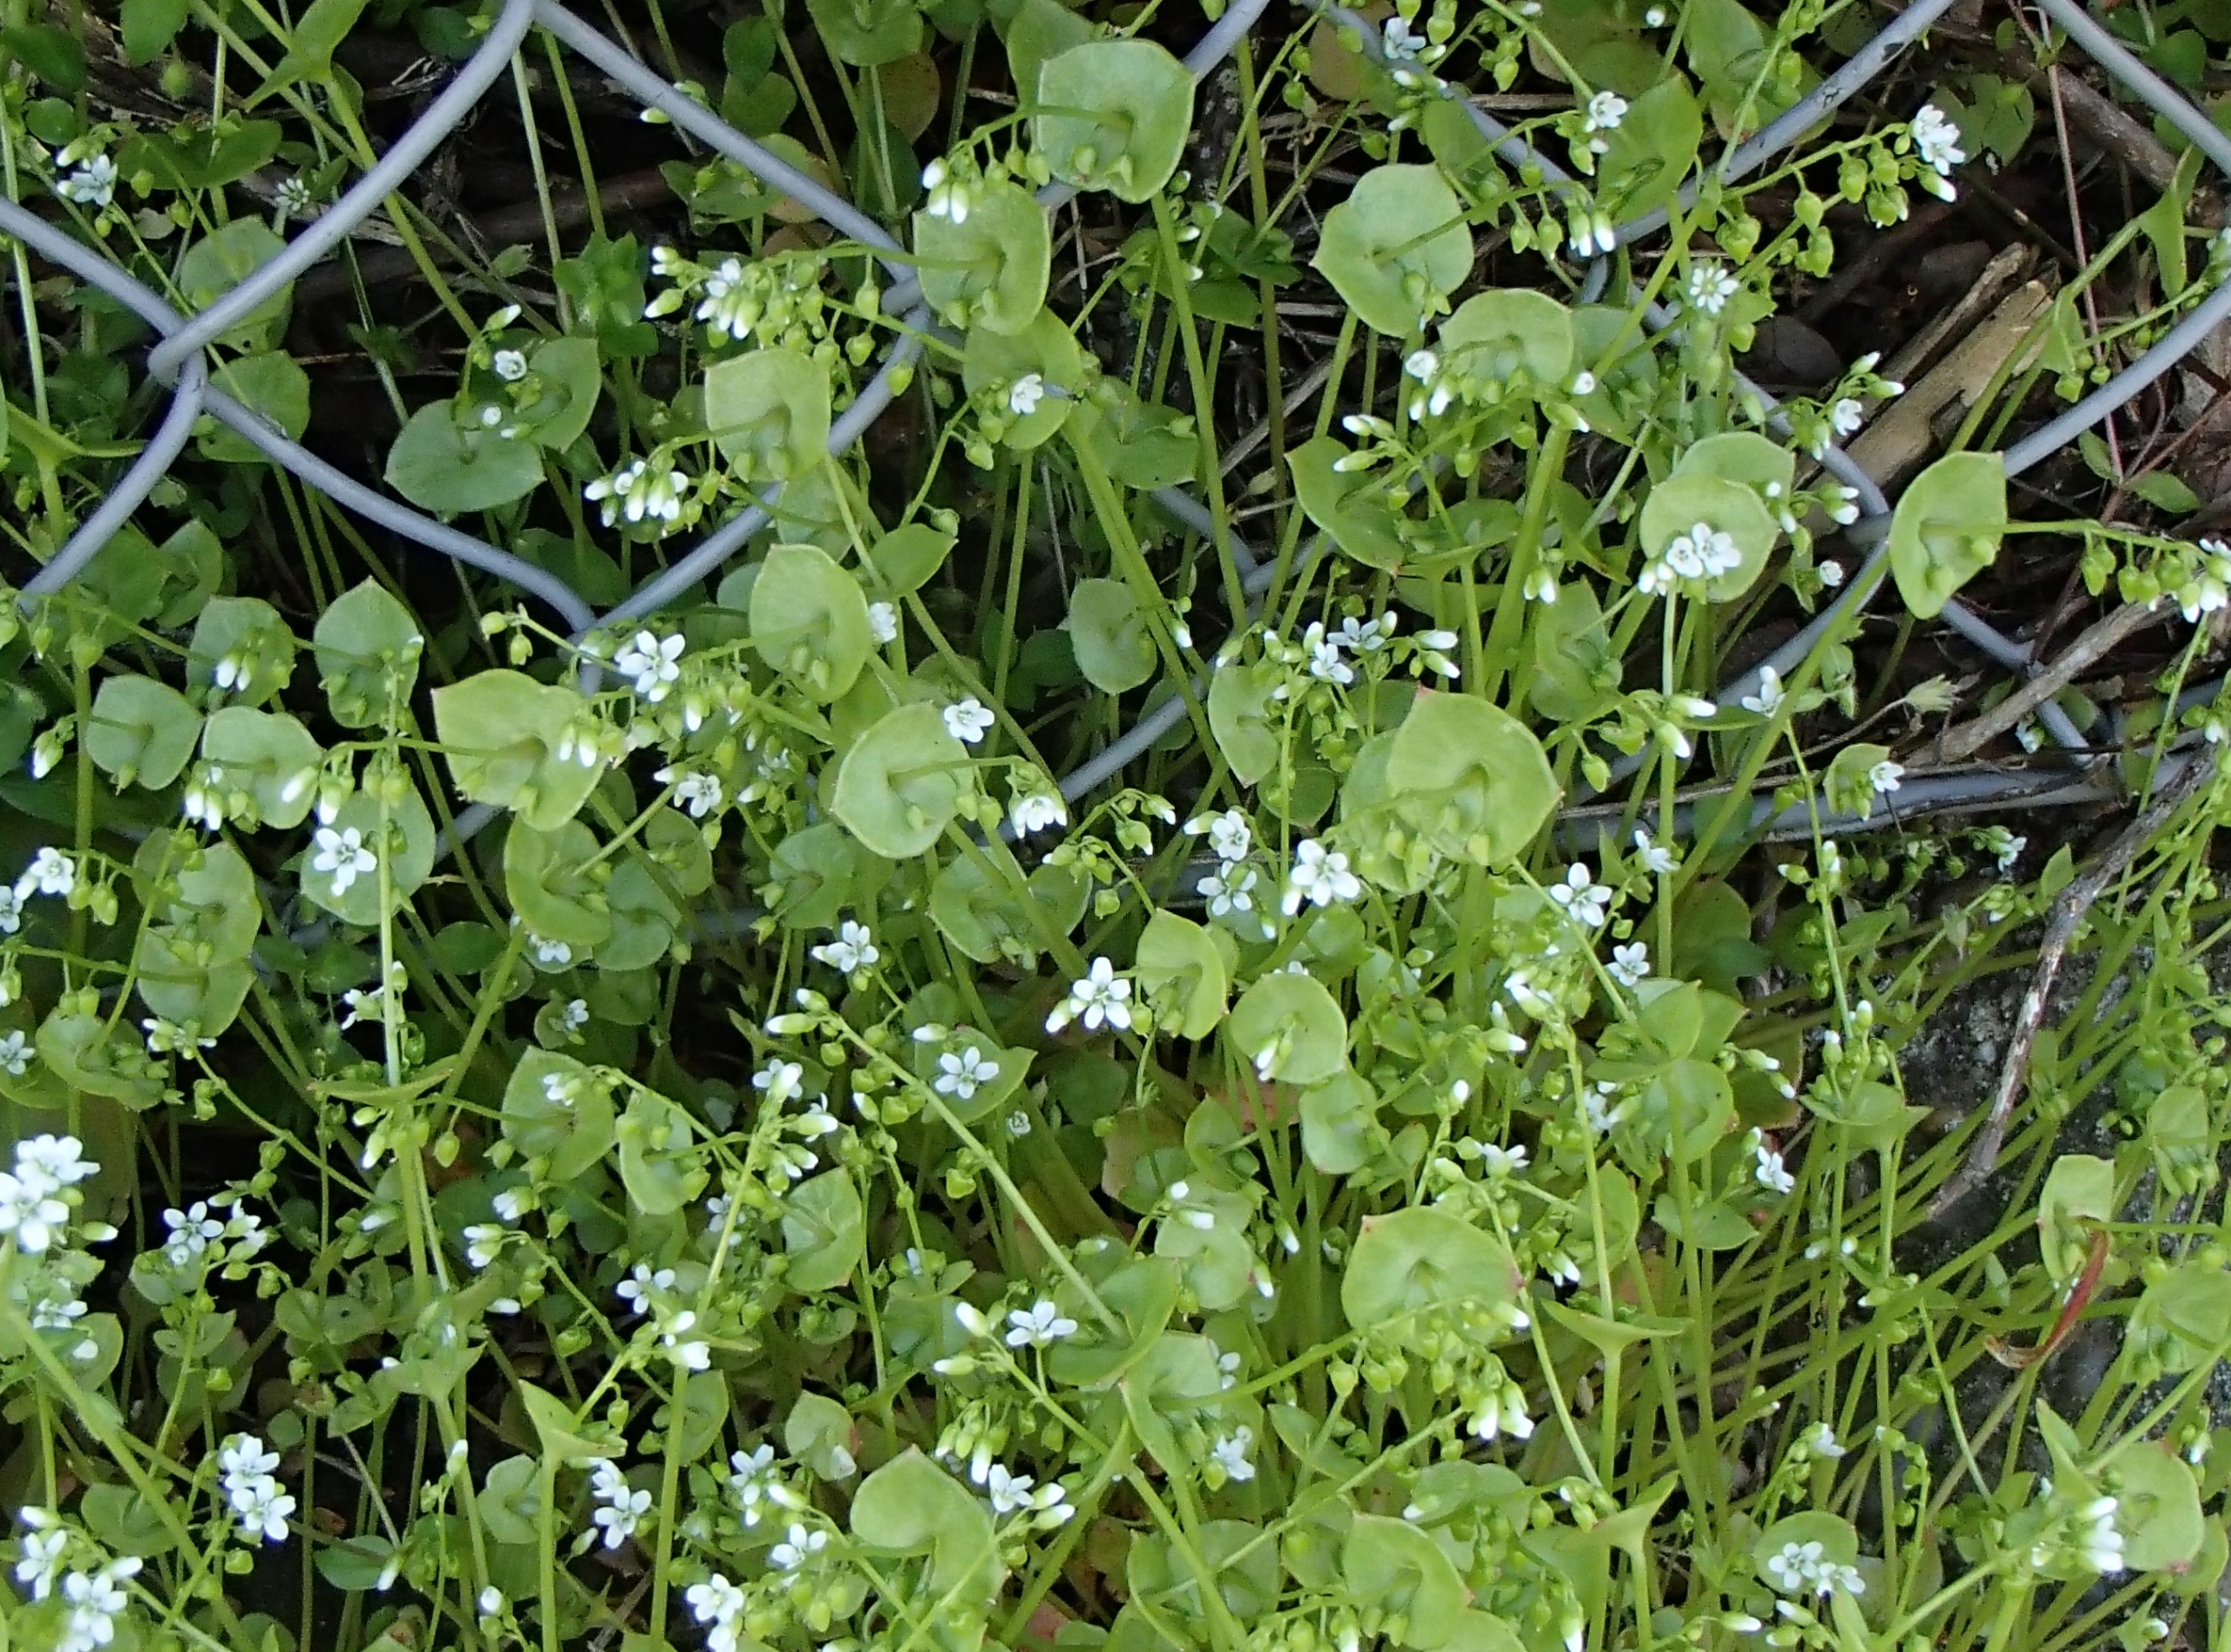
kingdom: Plantae
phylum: Tracheophyta
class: Magnoliopsida
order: Caryophyllales
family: Montiaceae
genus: Claytonia
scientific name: Claytonia perfoliata
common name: Spiselig vinterportulak
